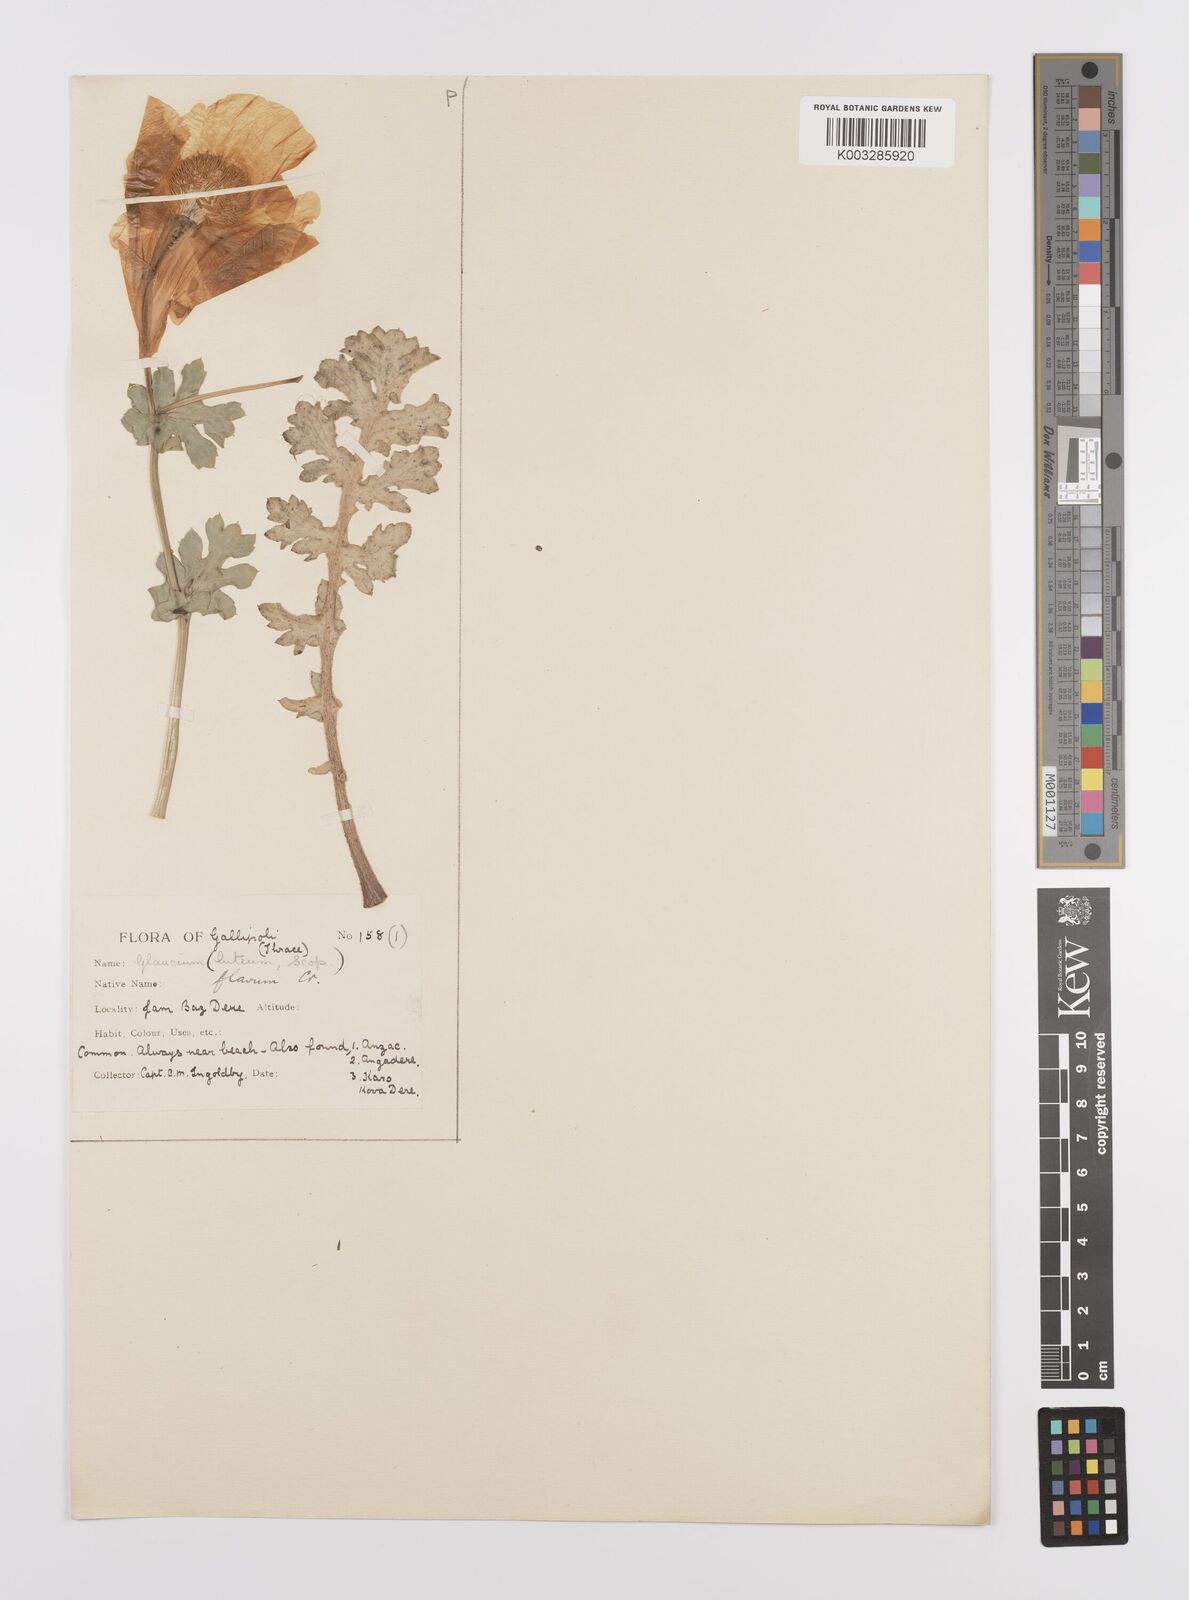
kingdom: Plantae
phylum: Tracheophyta
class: Magnoliopsida
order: Ranunculales
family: Papaveraceae
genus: Glaucium
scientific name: Glaucium flavum
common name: Yellow horned-poppy
